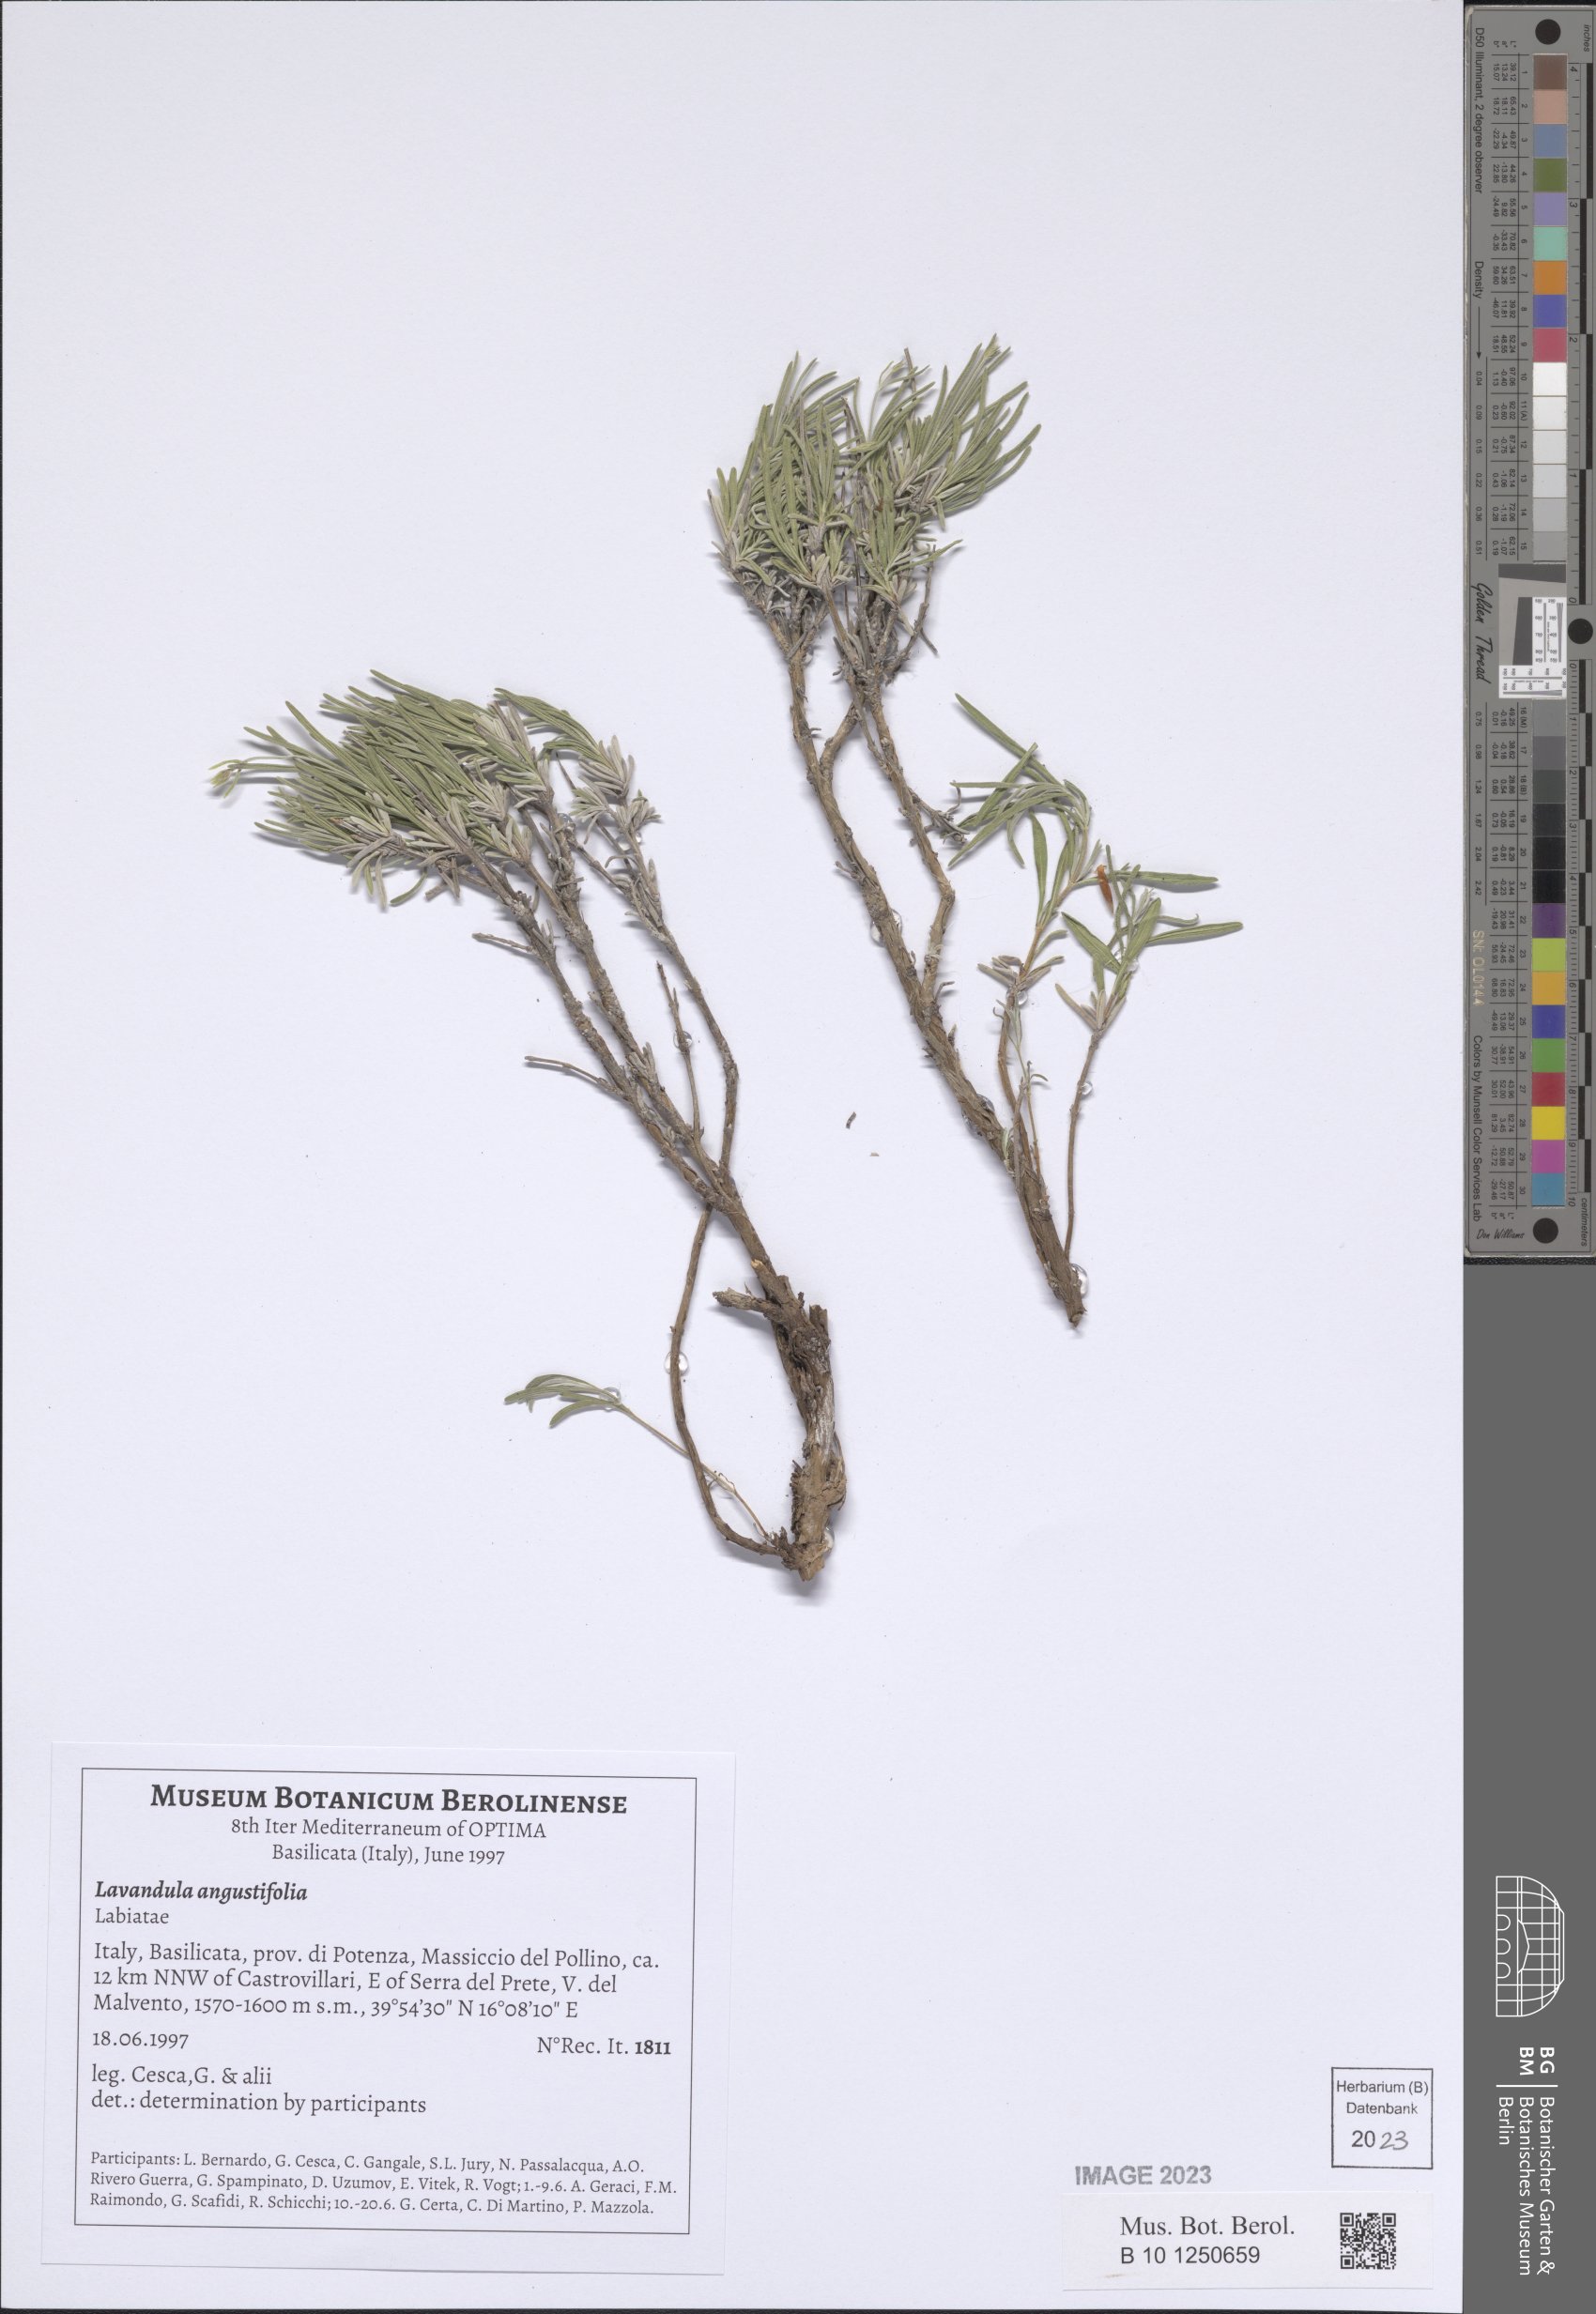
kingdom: Plantae
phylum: Tracheophyta
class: Magnoliopsida
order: Lamiales
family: Lamiaceae
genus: Lavandula
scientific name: Lavandula angustifolia
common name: Garden lavender
